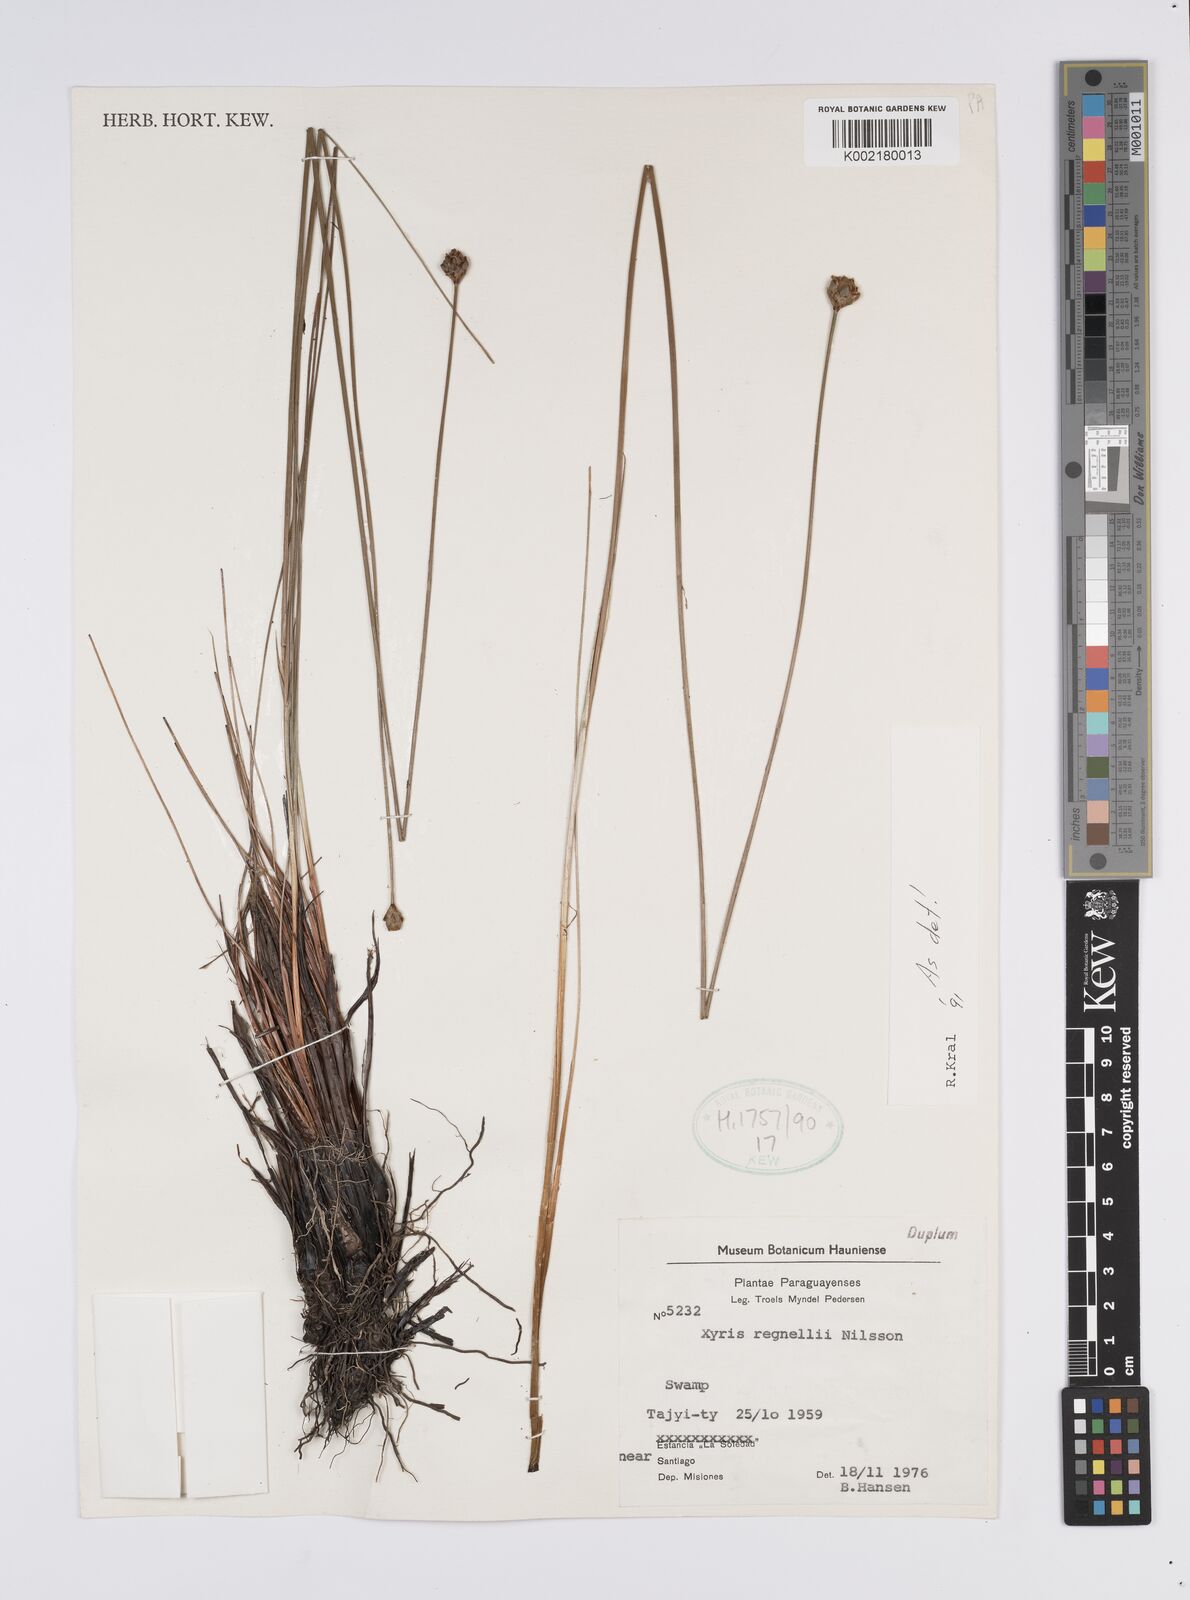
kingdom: Plantae
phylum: Tracheophyta
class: Liliopsida
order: Poales
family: Xyridaceae
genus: Xyris
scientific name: Xyris regnellii
